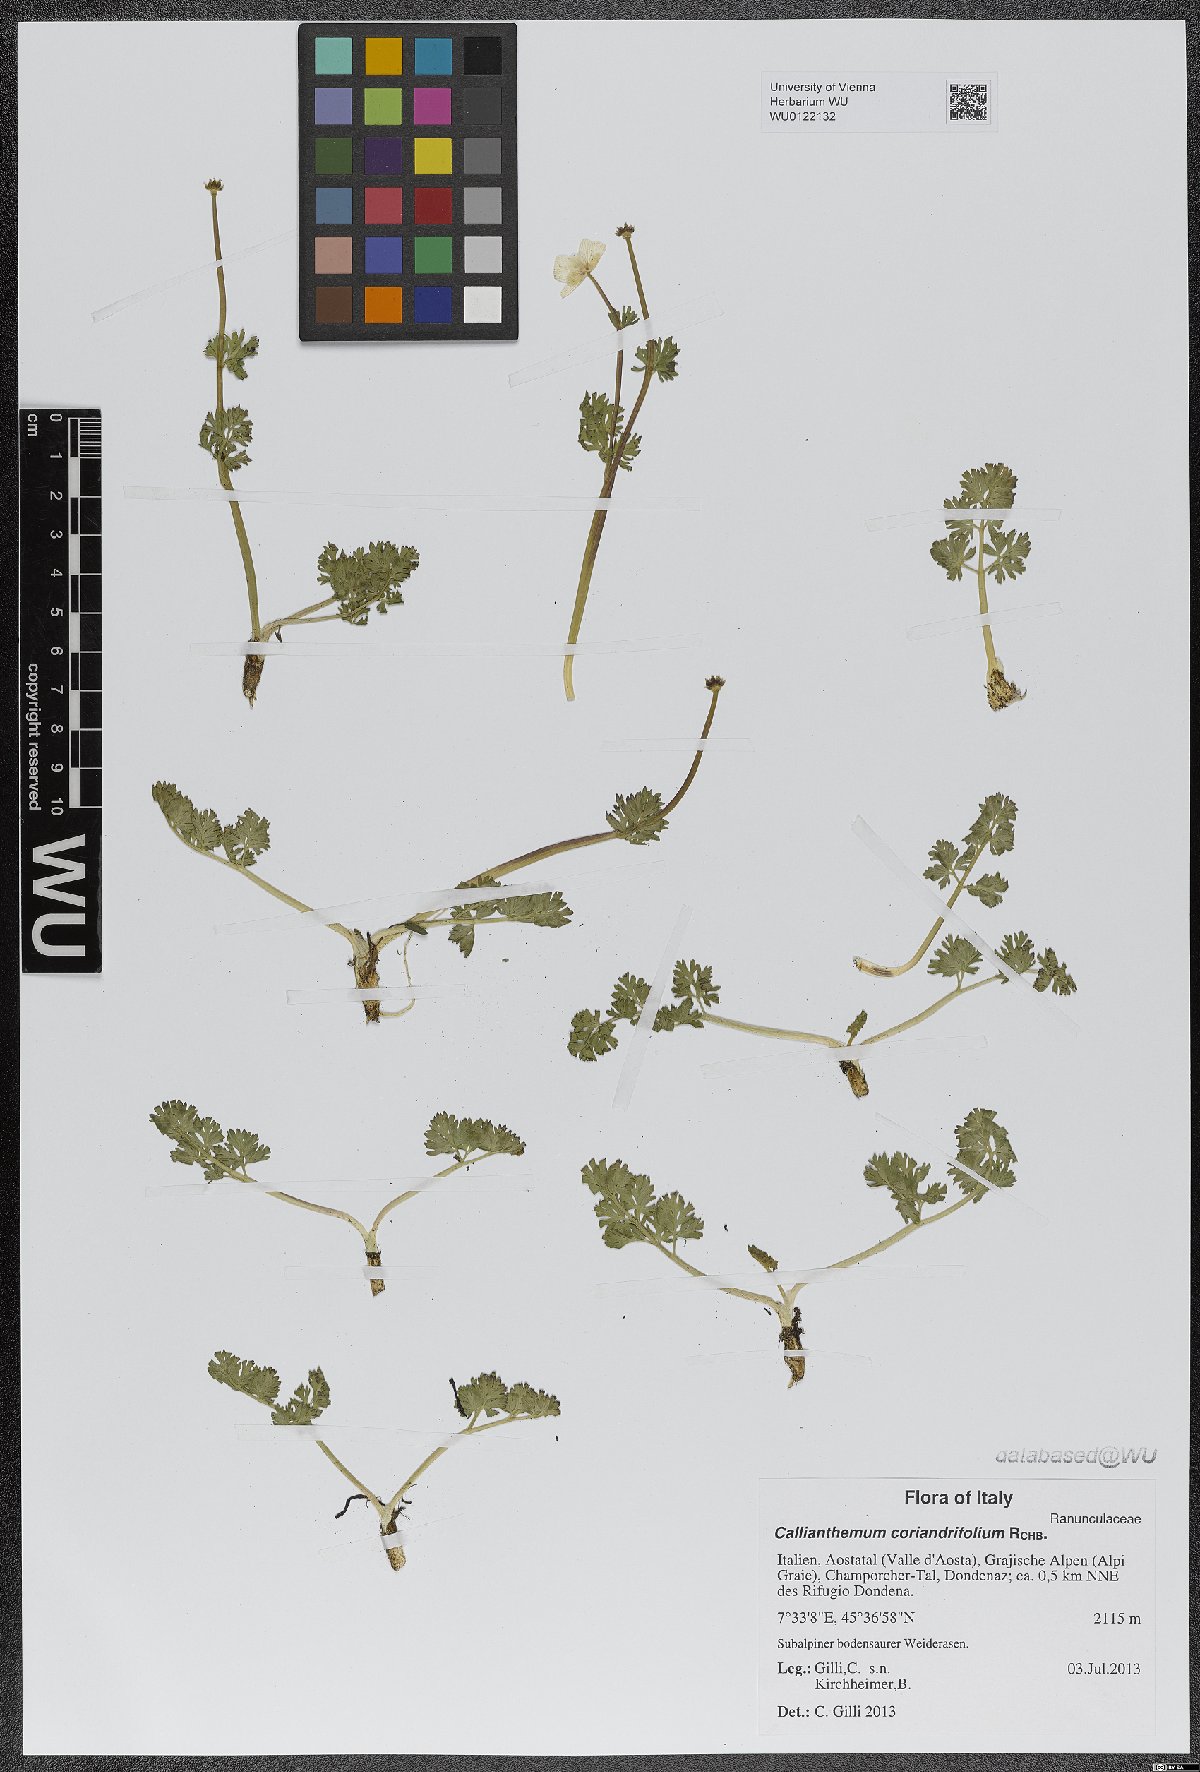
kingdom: Plantae
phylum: Tracheophyta
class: Magnoliopsida
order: Ranunculales
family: Ranunculaceae
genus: Callianthemum
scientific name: Callianthemum coriandrifolium
